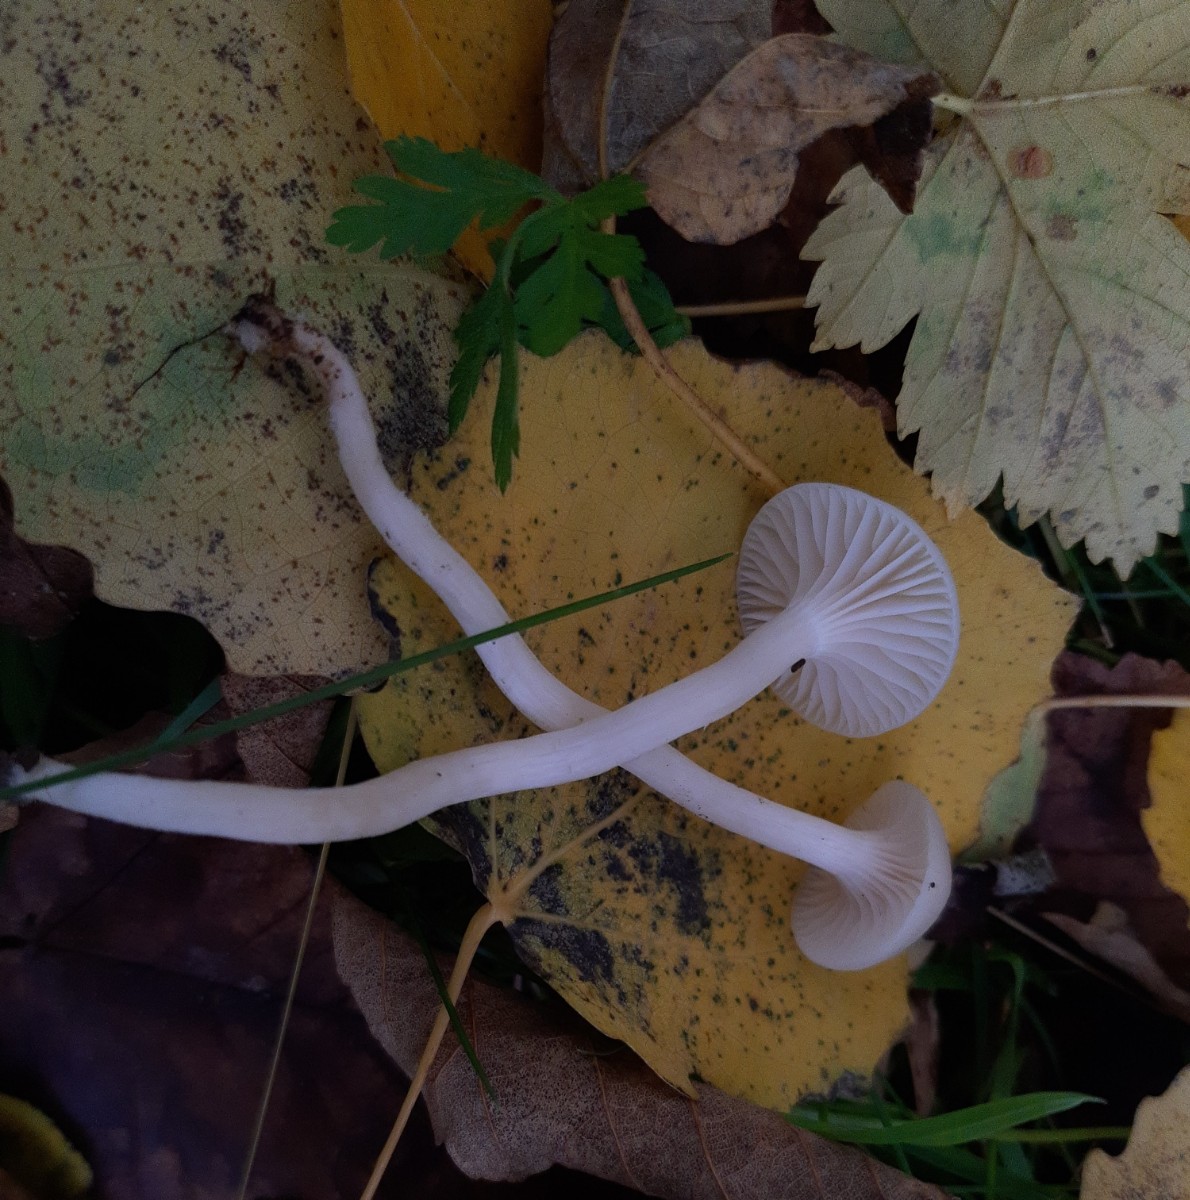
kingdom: Fungi
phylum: Basidiomycota
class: Agaricomycetes
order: Agaricales
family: Hygrophoraceae
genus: Cuphophyllus
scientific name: Cuphophyllus virgineus
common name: snehvid vokshat
